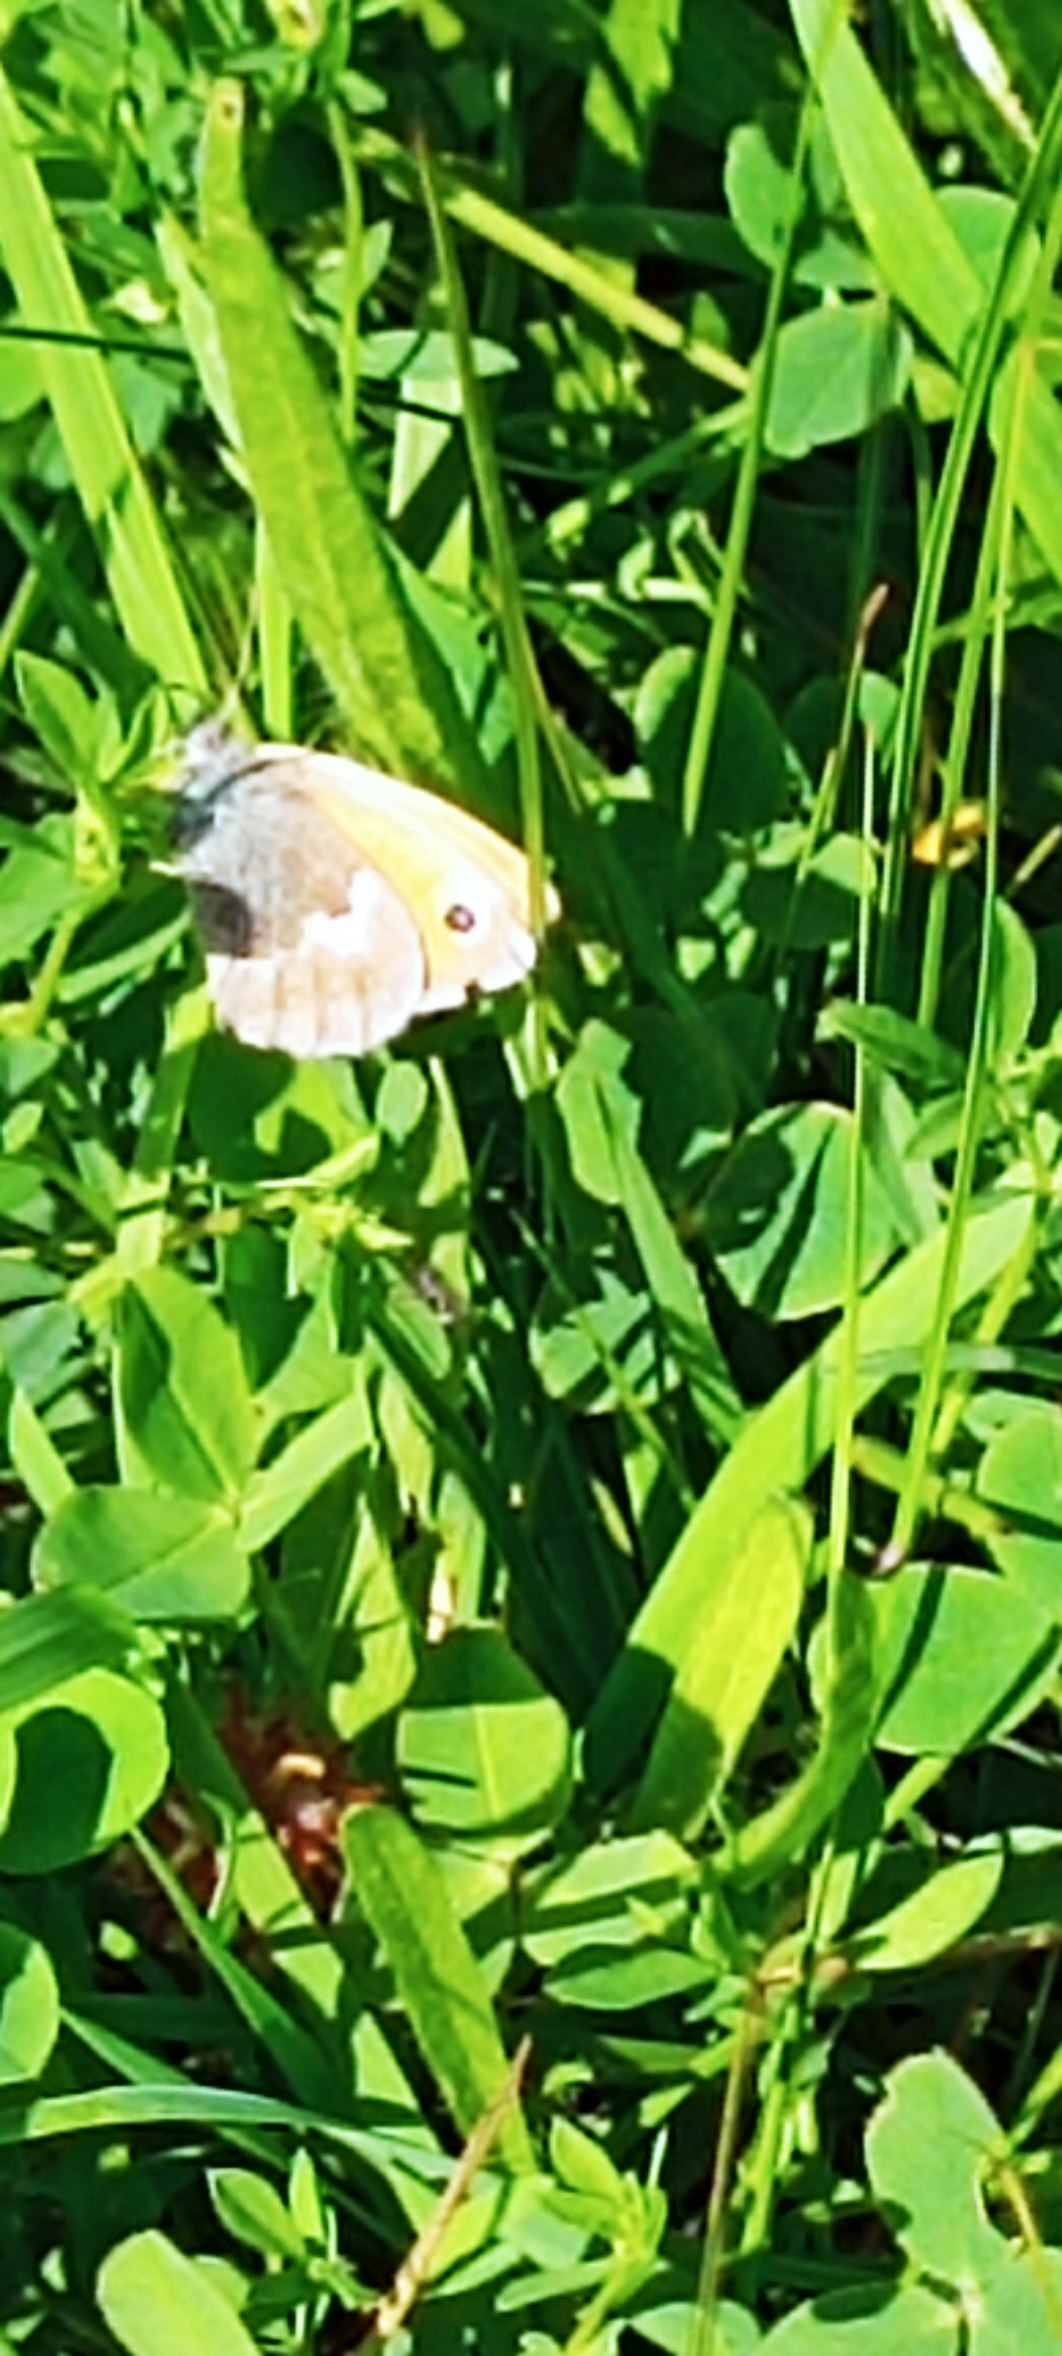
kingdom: Animalia
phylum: Arthropoda
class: Insecta
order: Lepidoptera
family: Nymphalidae
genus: Coenonympha
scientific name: Coenonympha pamphilus
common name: Okkergul randøje
